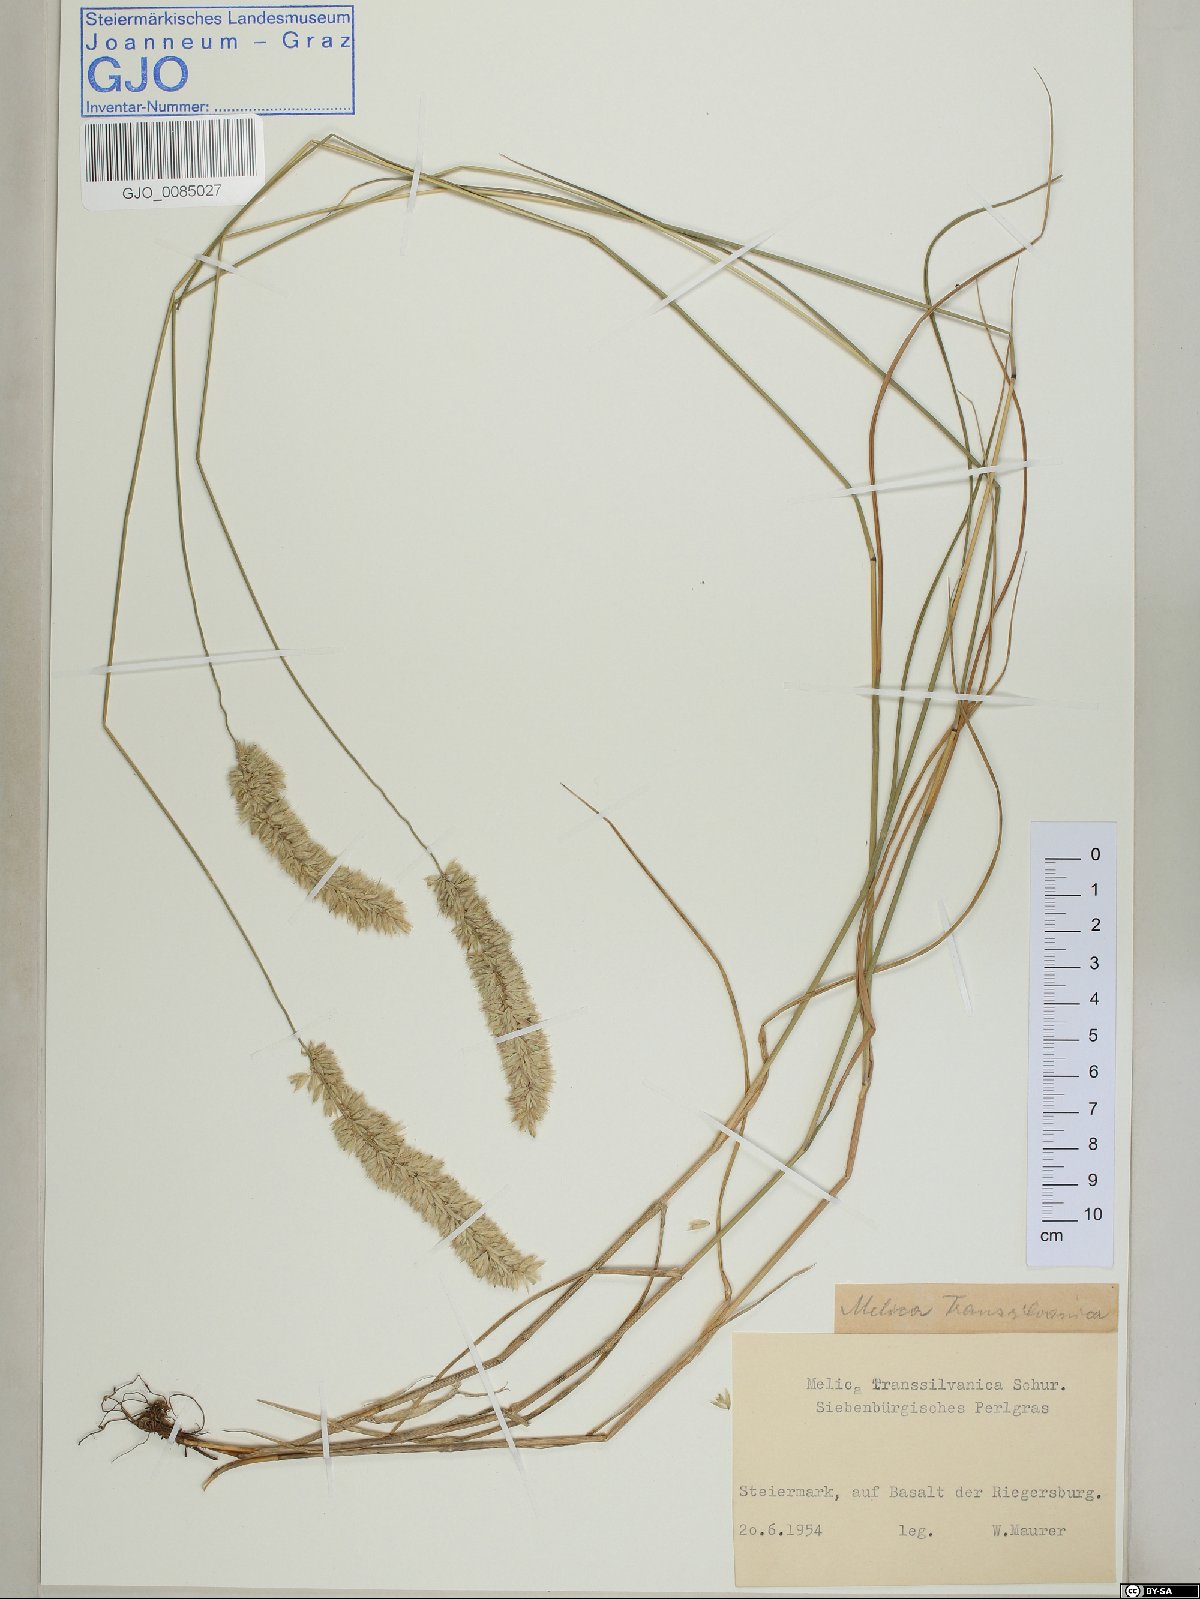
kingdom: Plantae
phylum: Tracheophyta
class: Liliopsida
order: Poales
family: Poaceae
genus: Melica
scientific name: Melica transsilvanica
